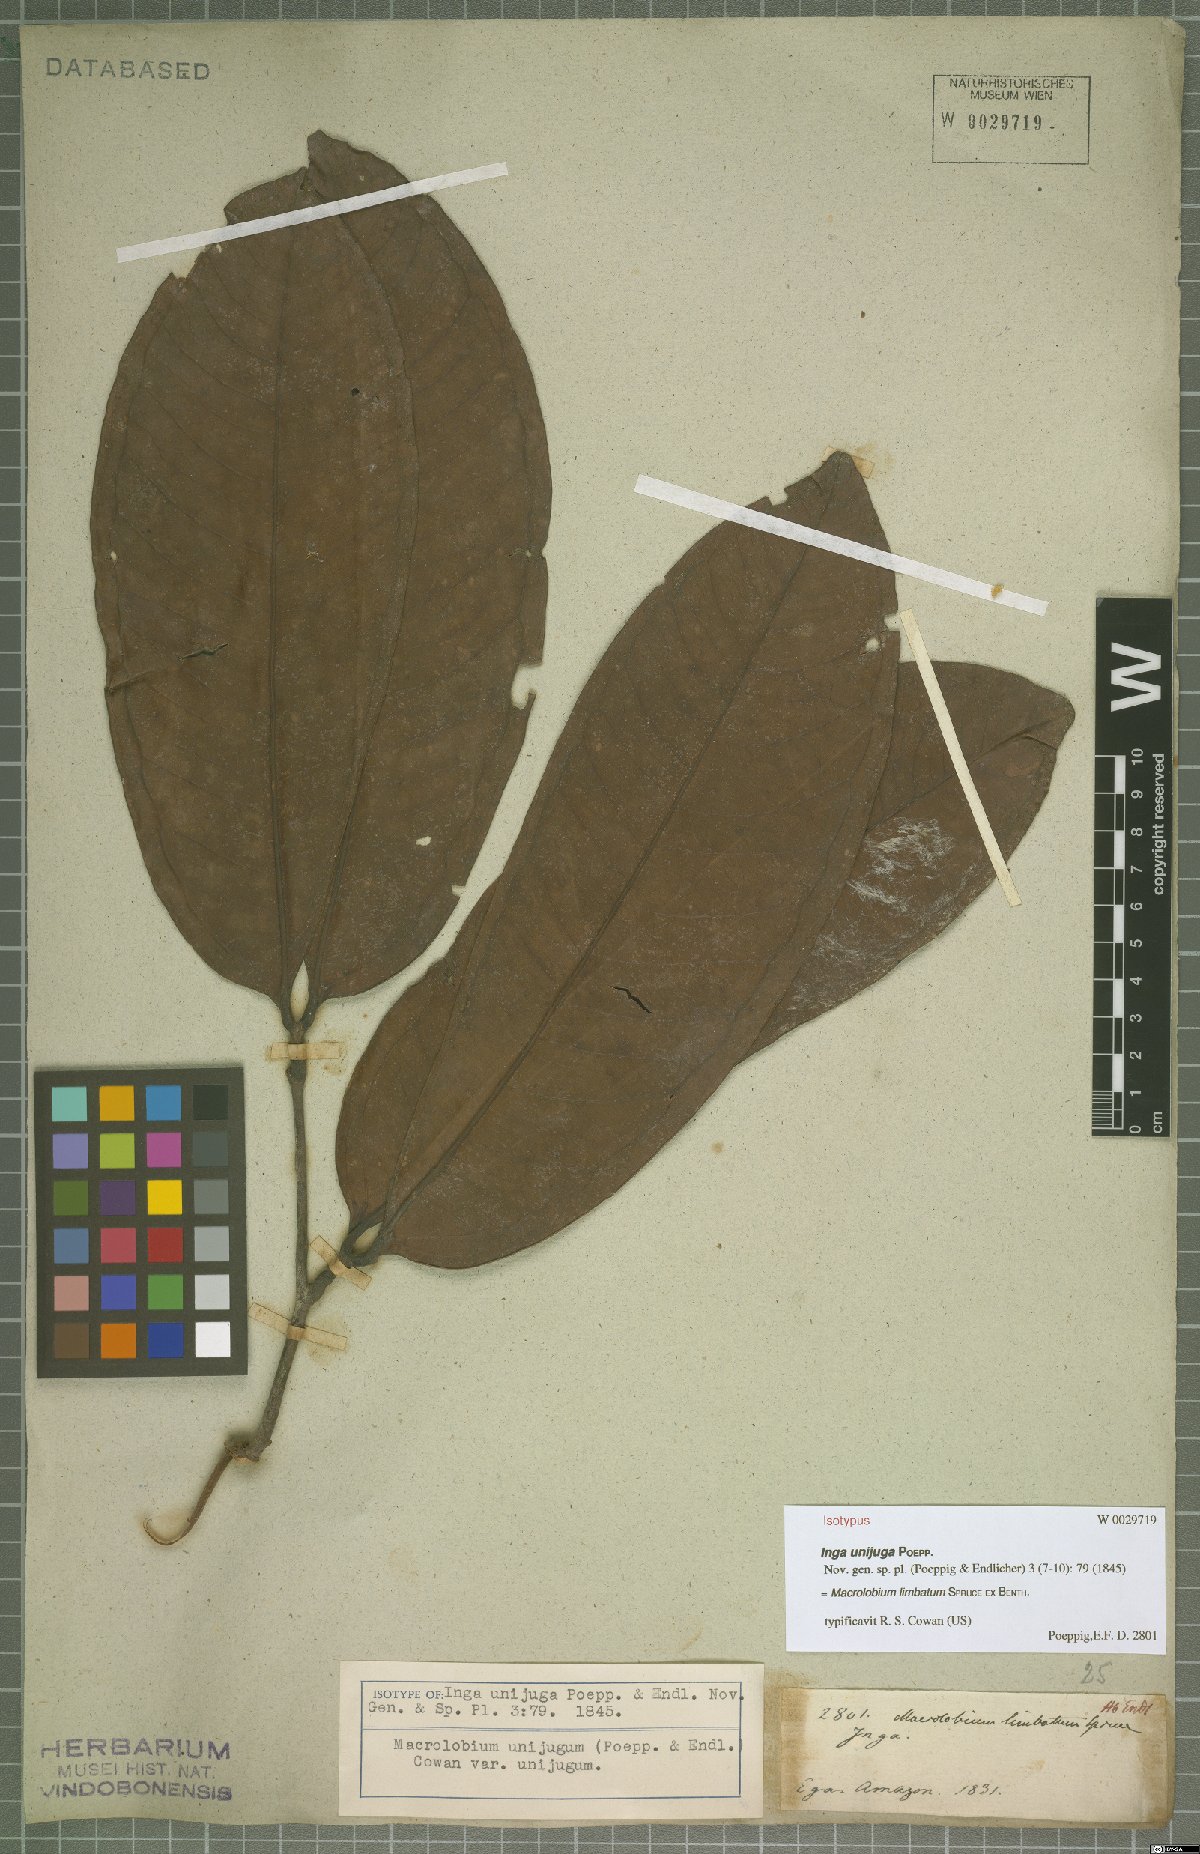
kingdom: Plantae
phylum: Tracheophyta
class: Magnoliopsida
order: Fabales
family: Fabaceae
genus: Macrolobium
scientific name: Macrolobium limbatum
